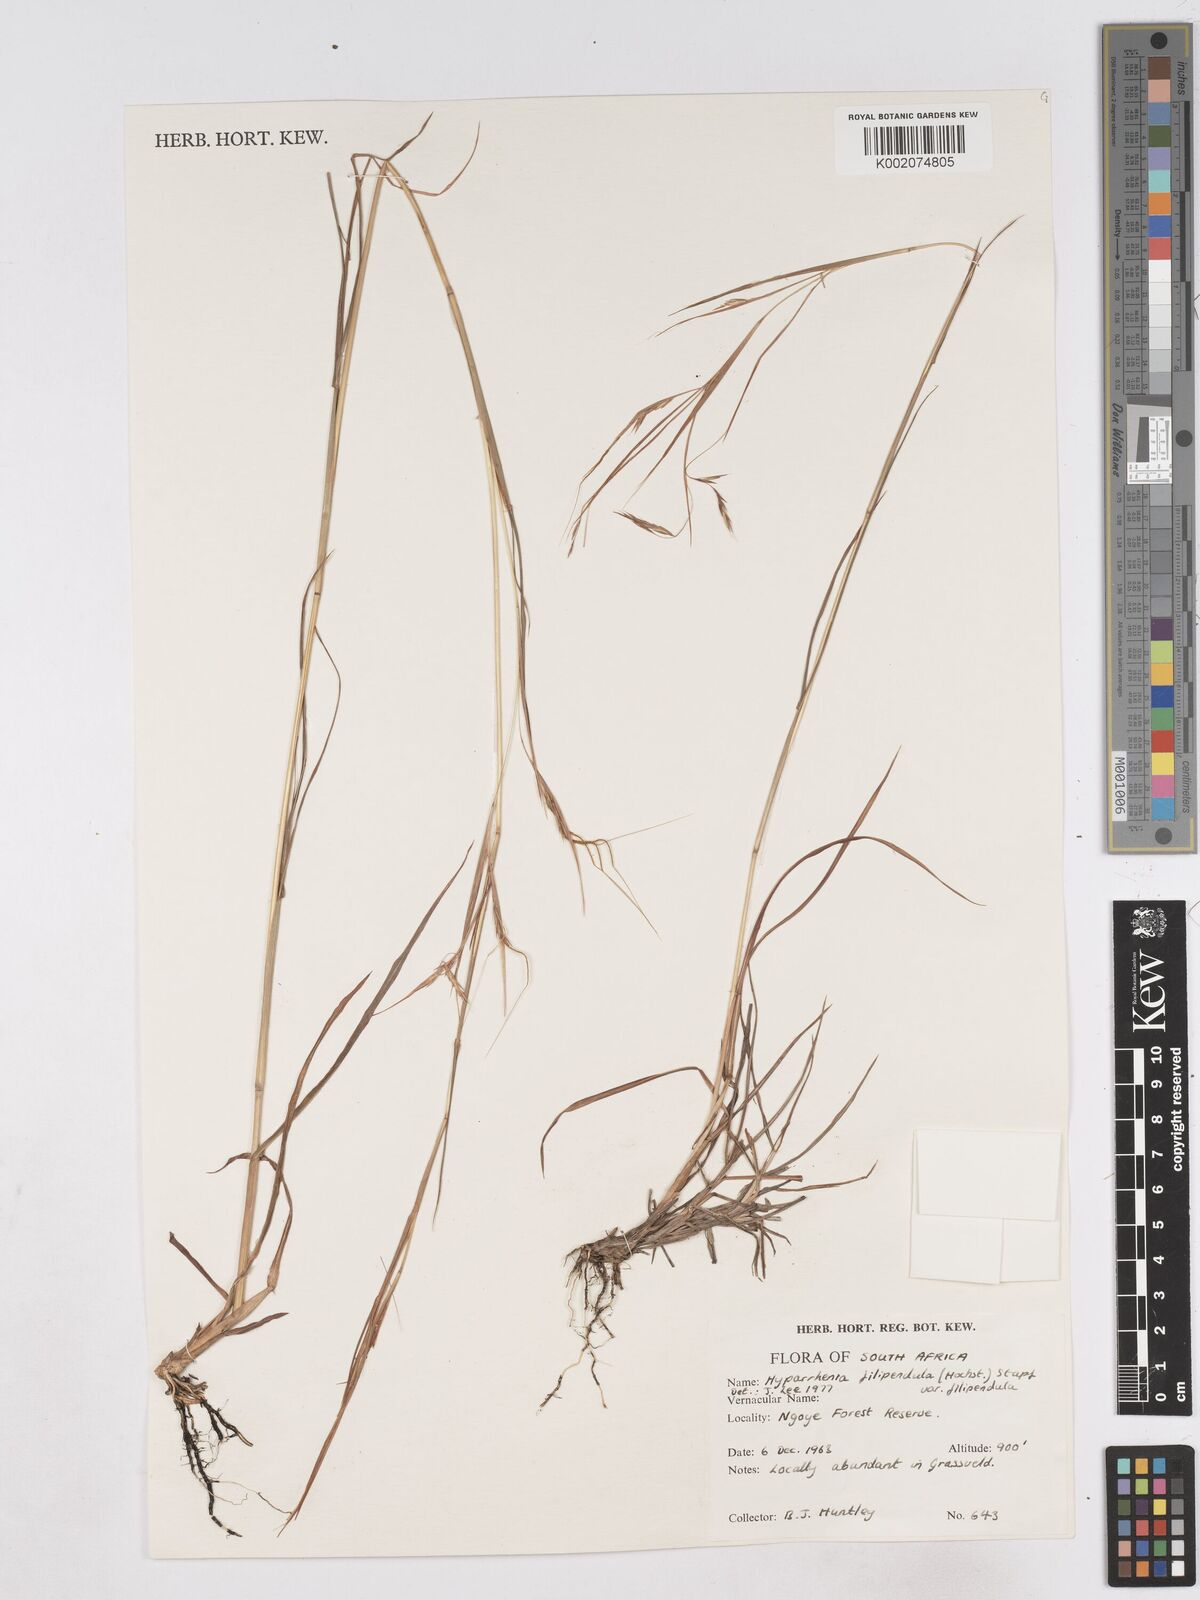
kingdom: Plantae
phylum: Tracheophyta
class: Liliopsida
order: Poales
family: Poaceae
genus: Hyparrhenia
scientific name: Hyparrhenia filipendula
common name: Tambookie grass
